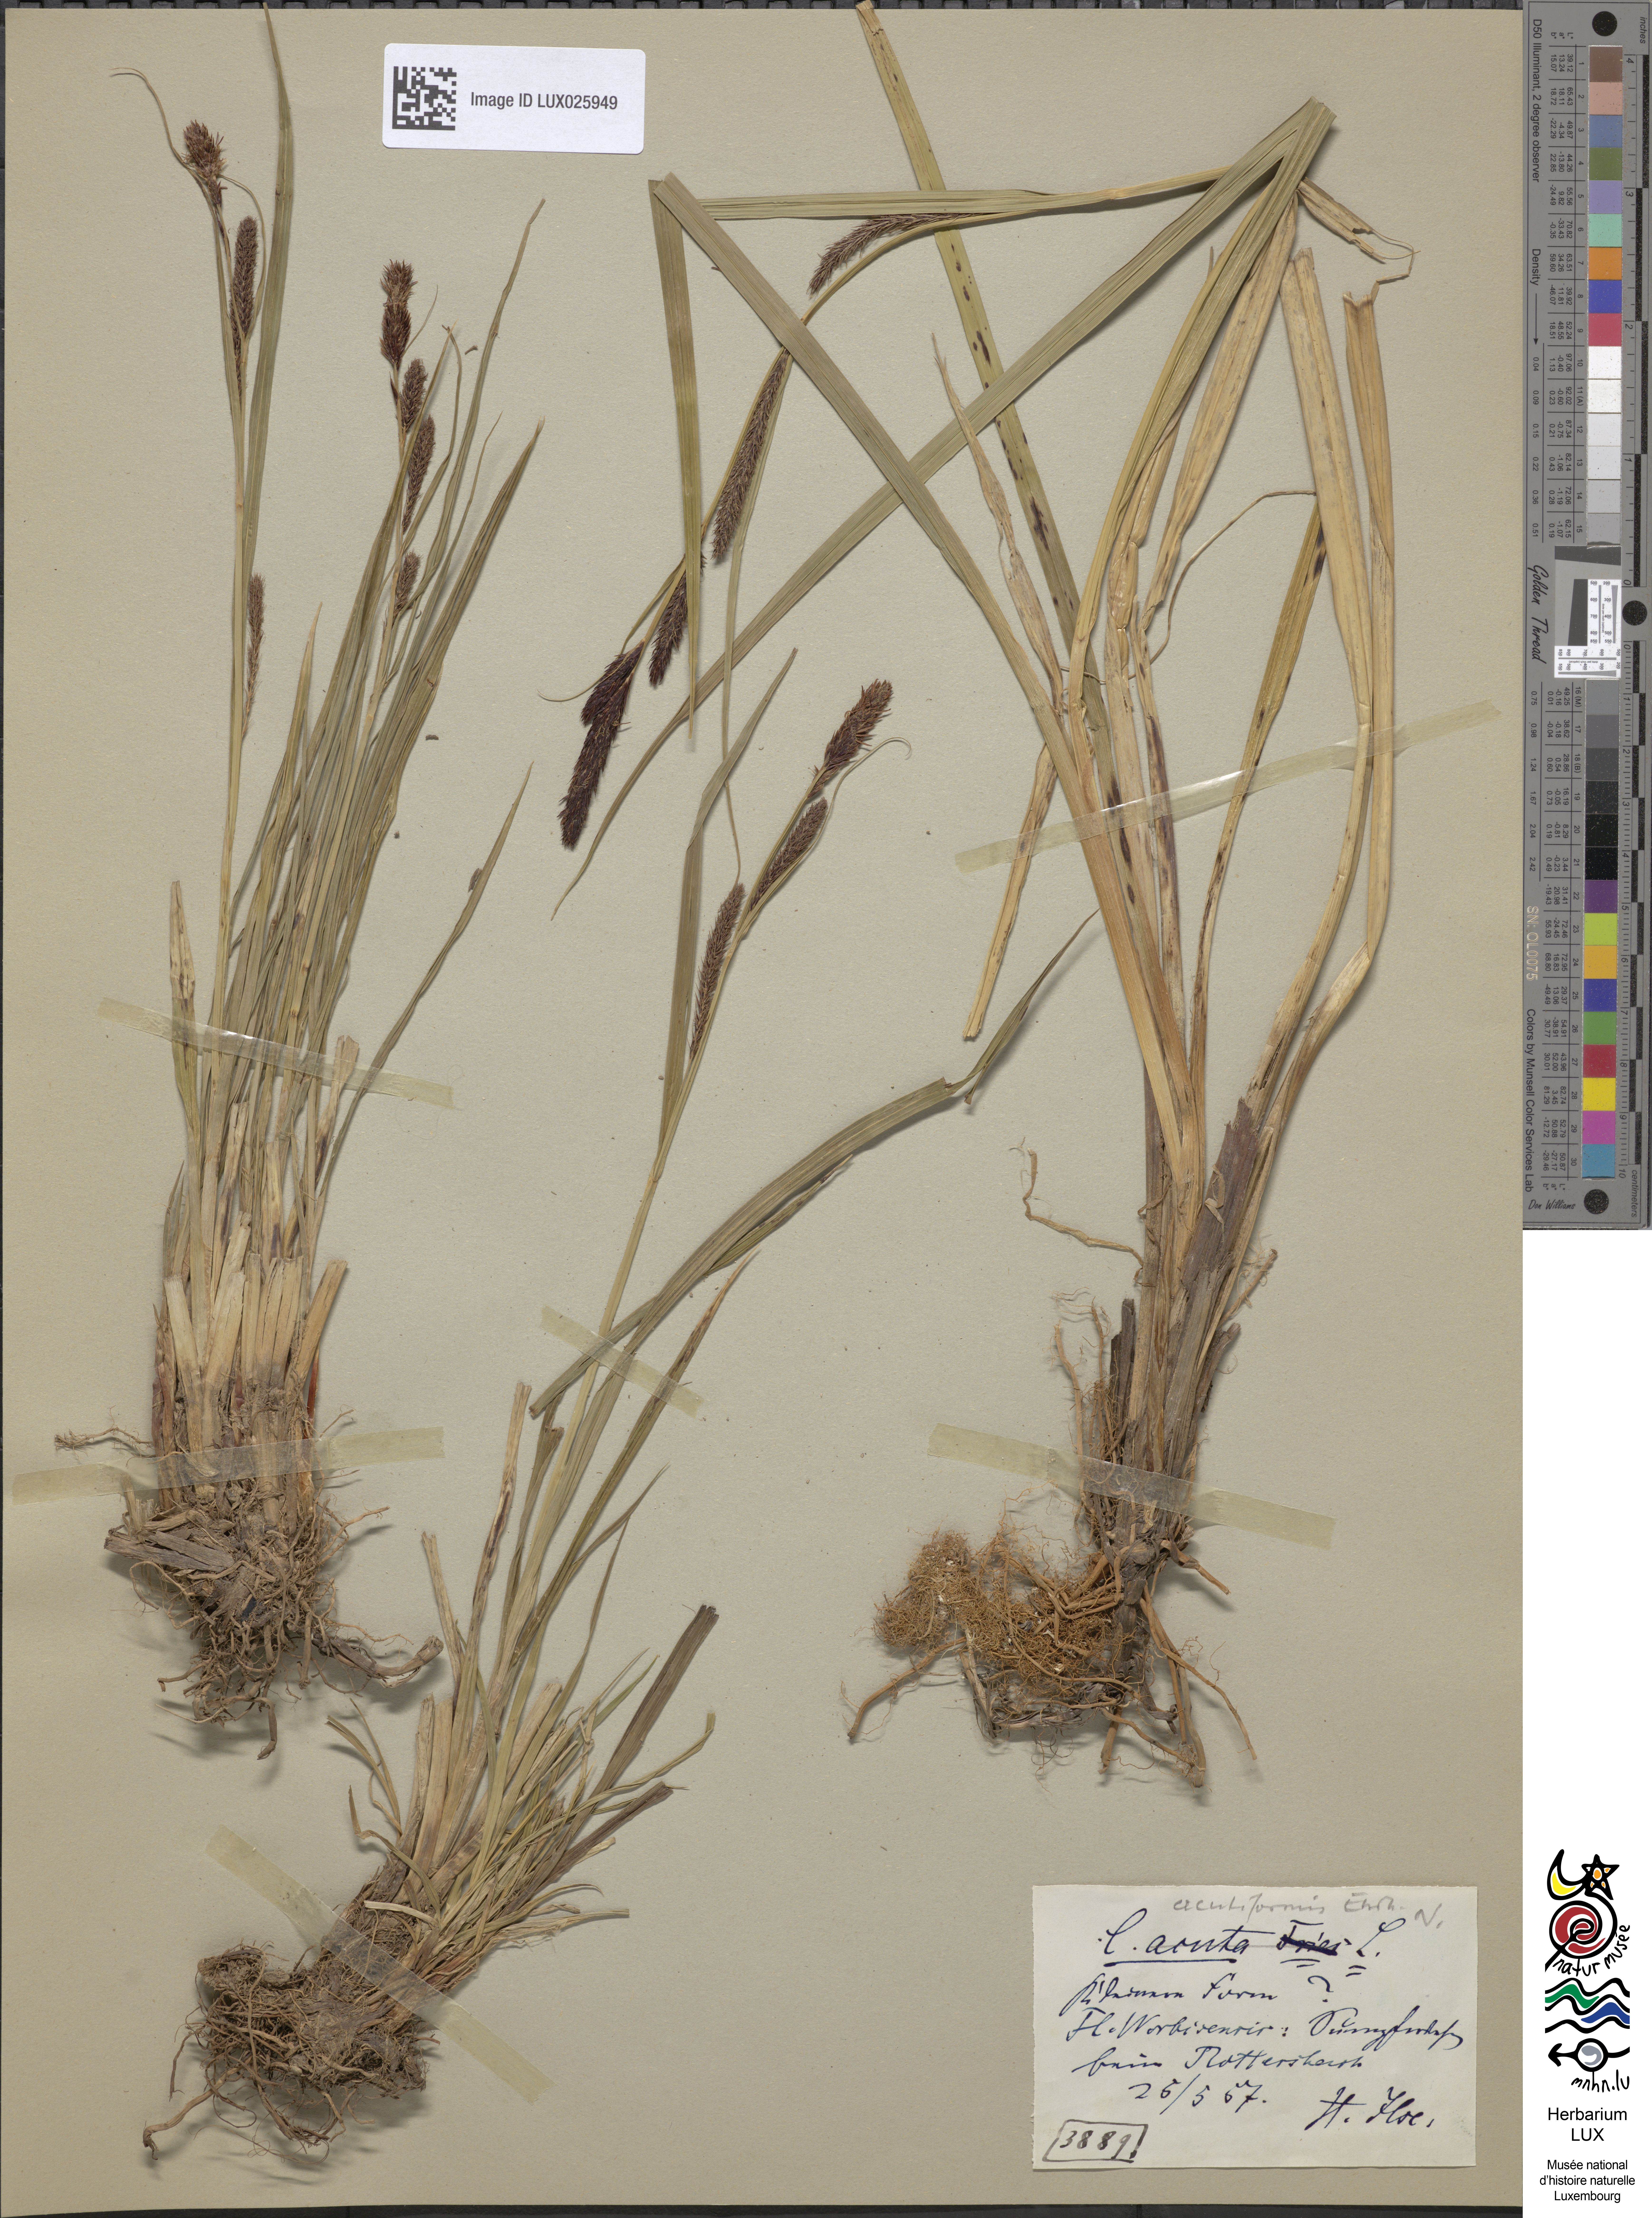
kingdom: Plantae
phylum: Tracheophyta
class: Liliopsida
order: Poales
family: Cyperaceae
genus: Carex
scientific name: Carex acutiformis
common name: Lesser pond-sedge
